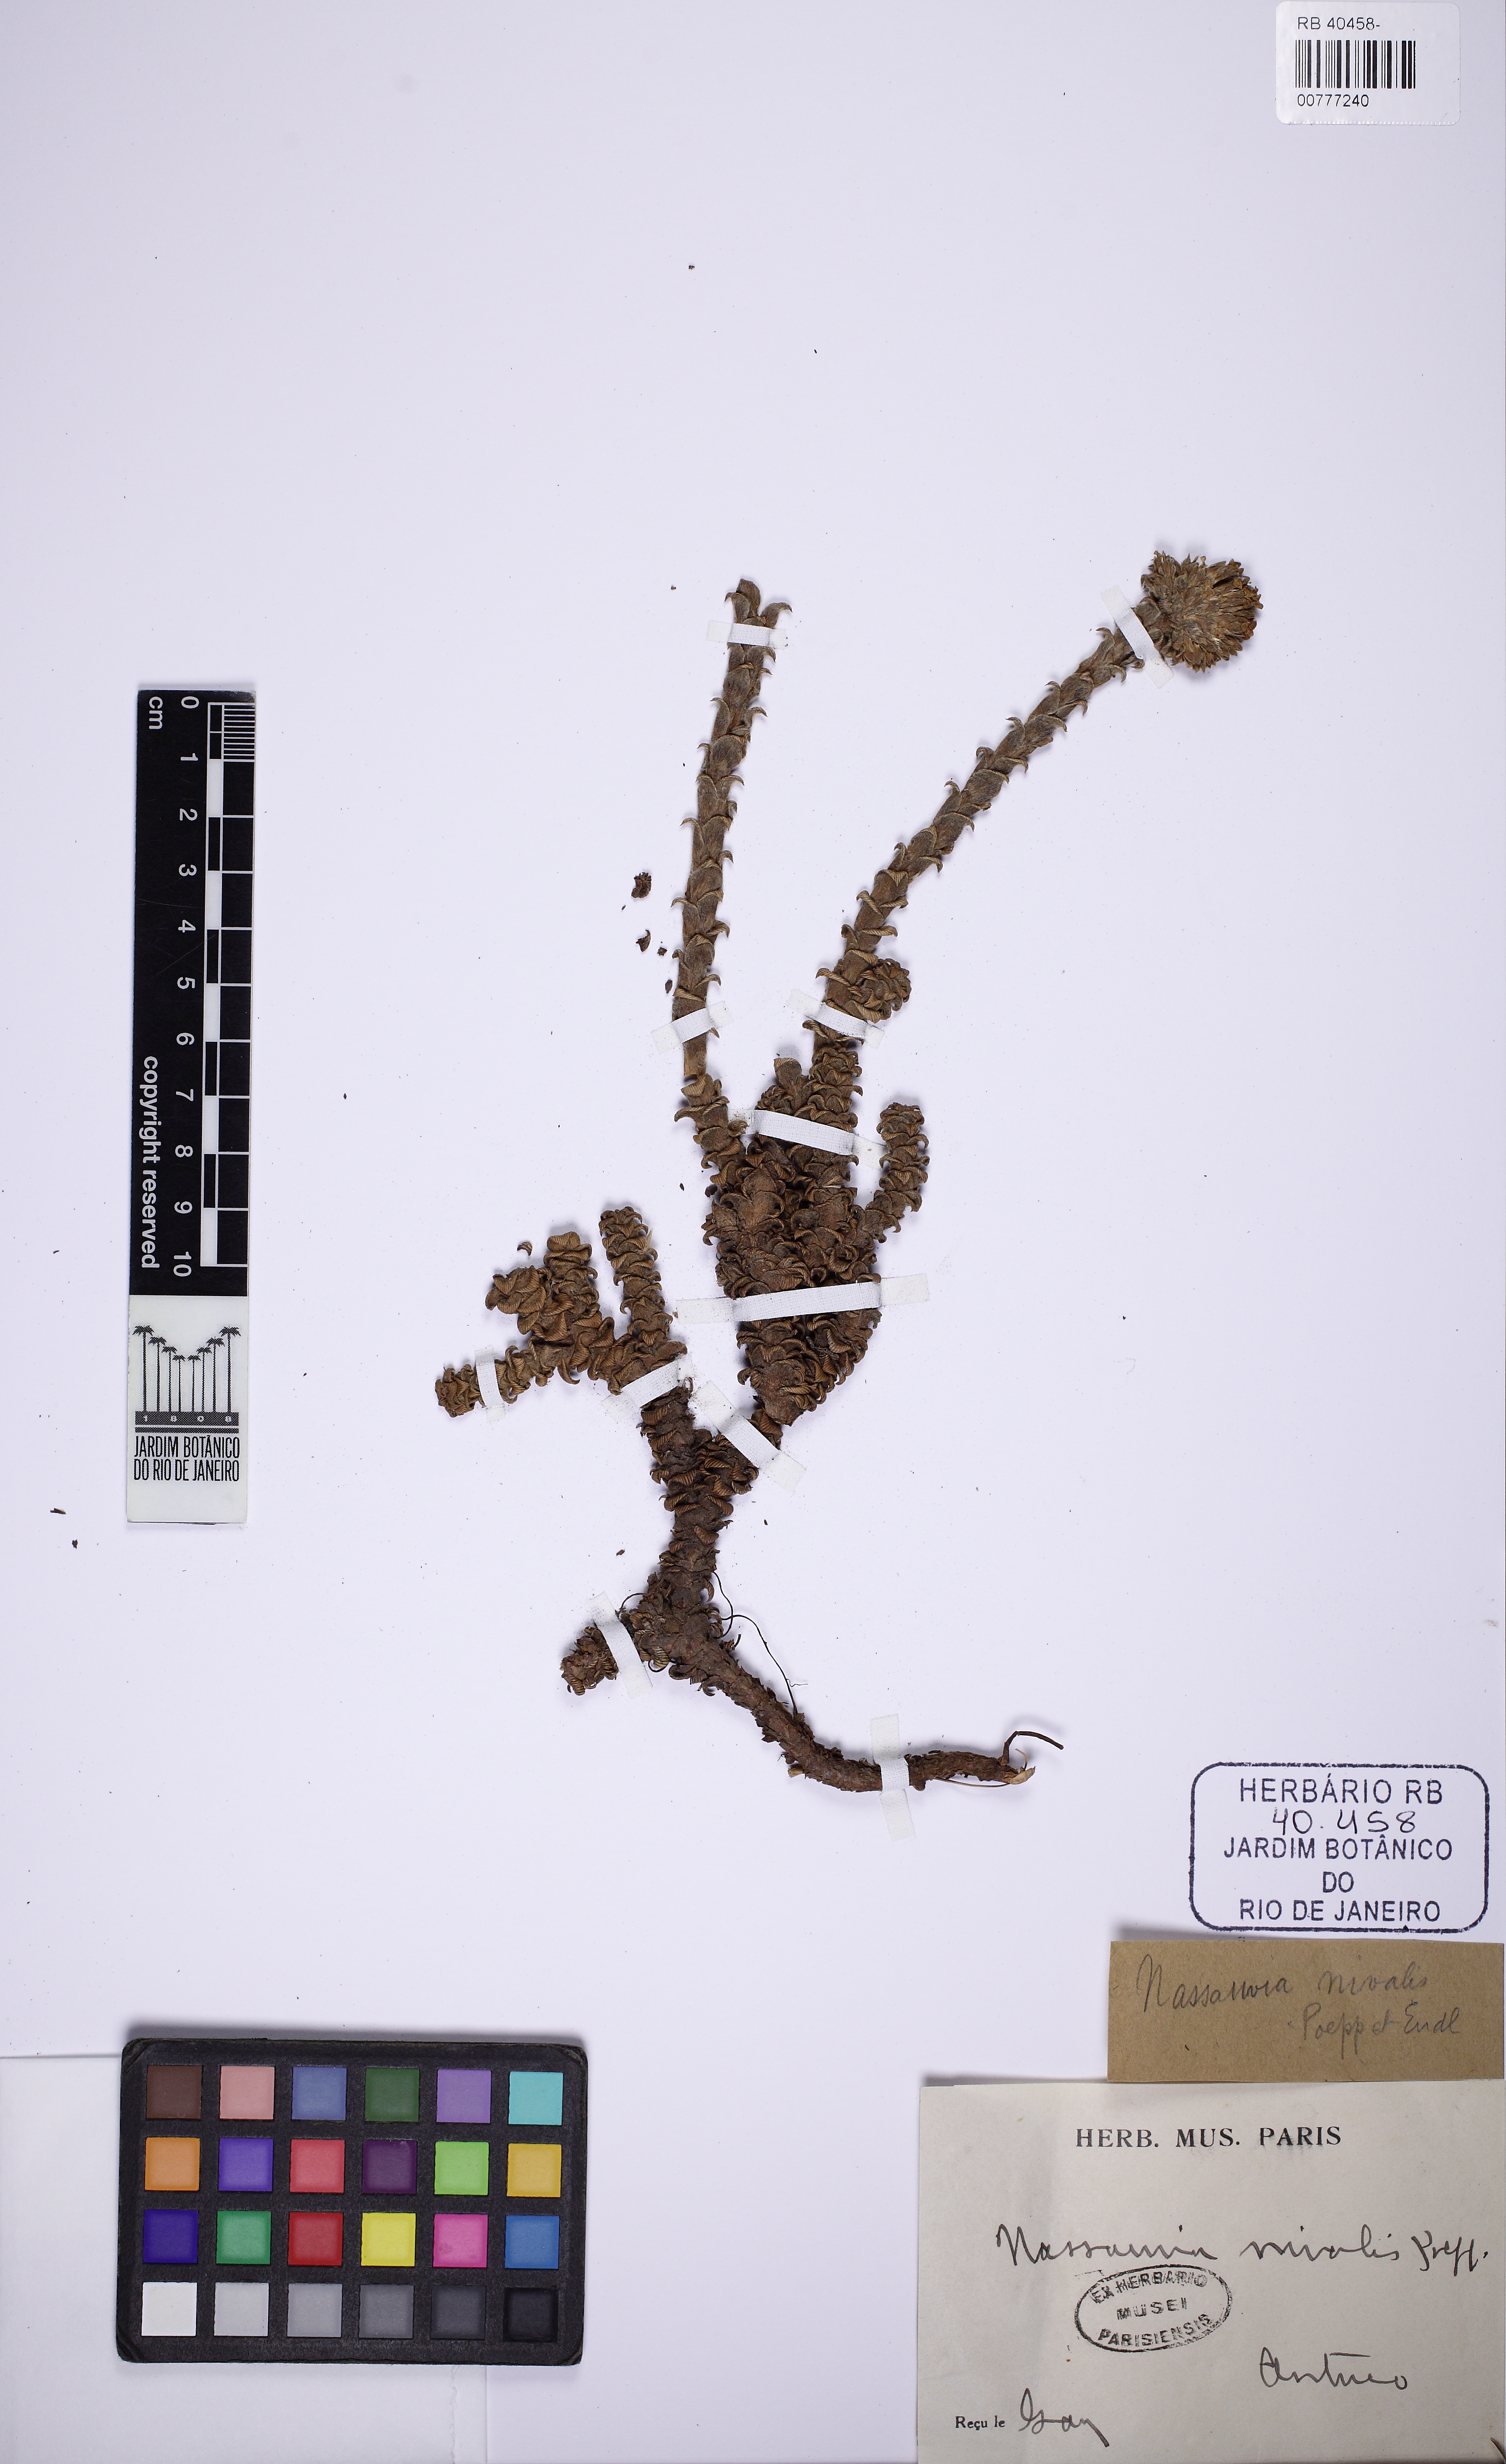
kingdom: Plantae
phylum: Tracheophyta
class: Magnoliopsida
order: Asterales
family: Asteraceae
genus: Nassauvia
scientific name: Nassauvia revoluta
